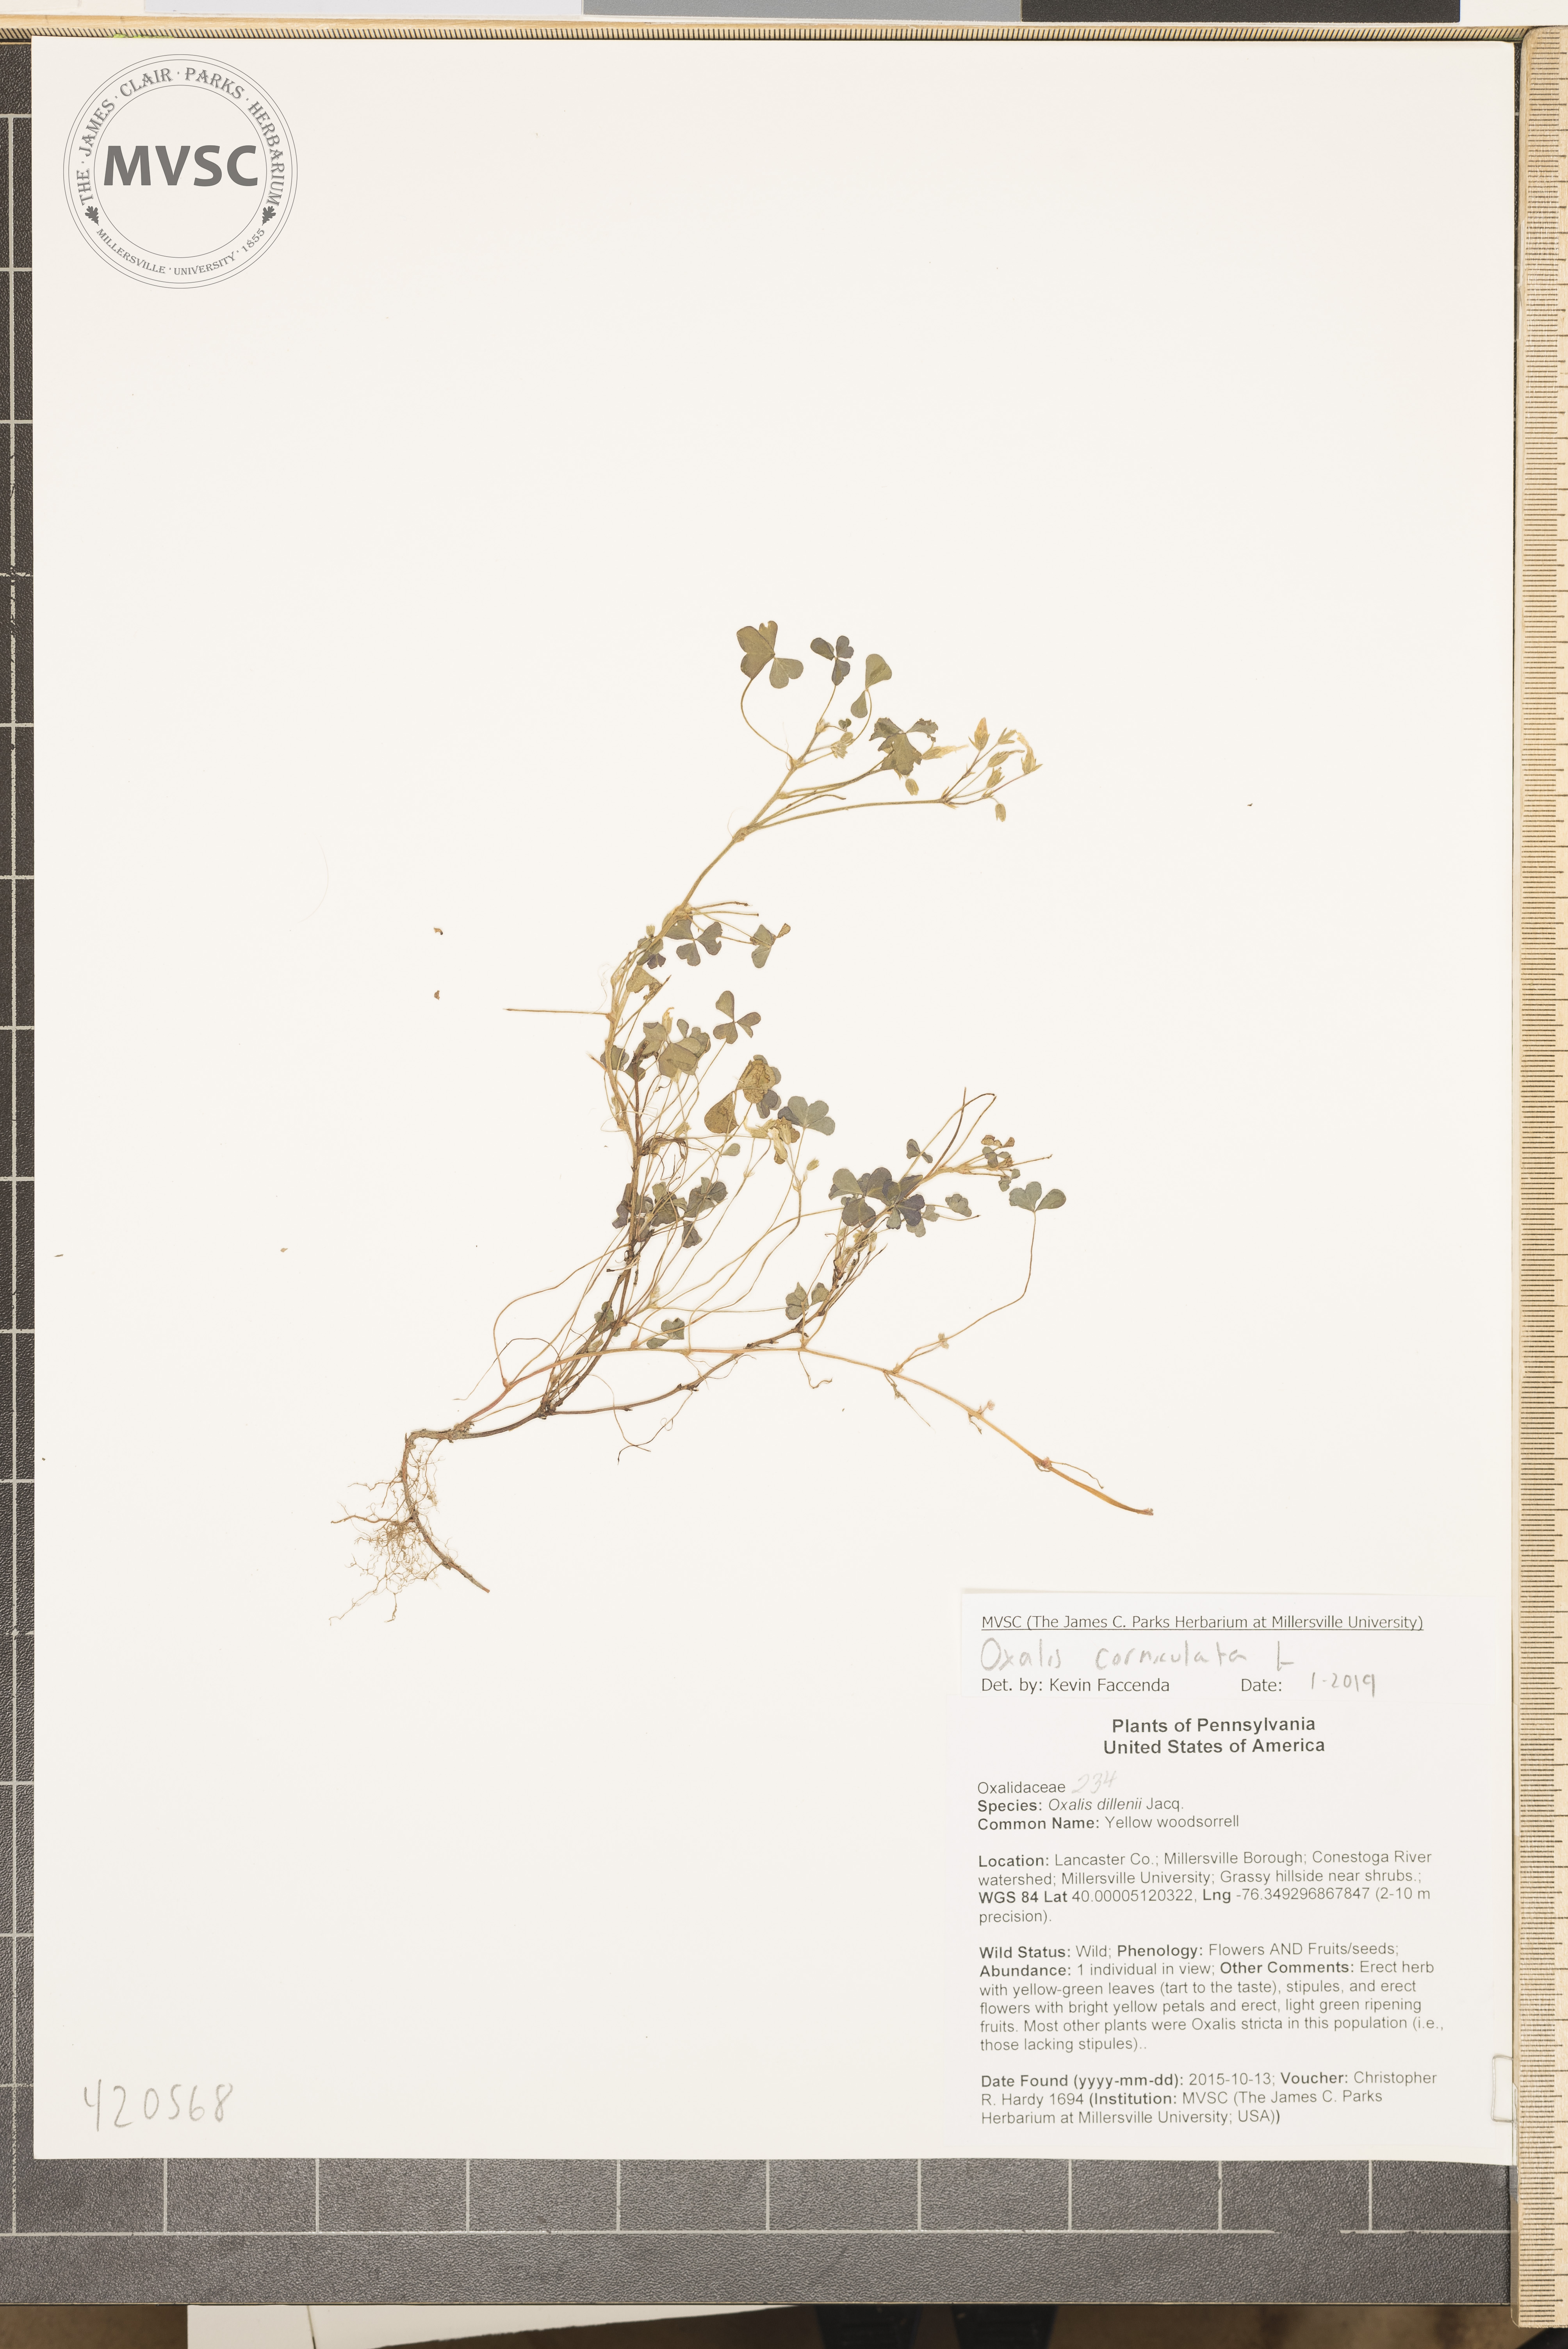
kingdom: Plantae
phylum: Tracheophyta
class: Magnoliopsida
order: Oxalidales
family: Oxalidaceae
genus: Oxalis
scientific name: Oxalis corniculata
